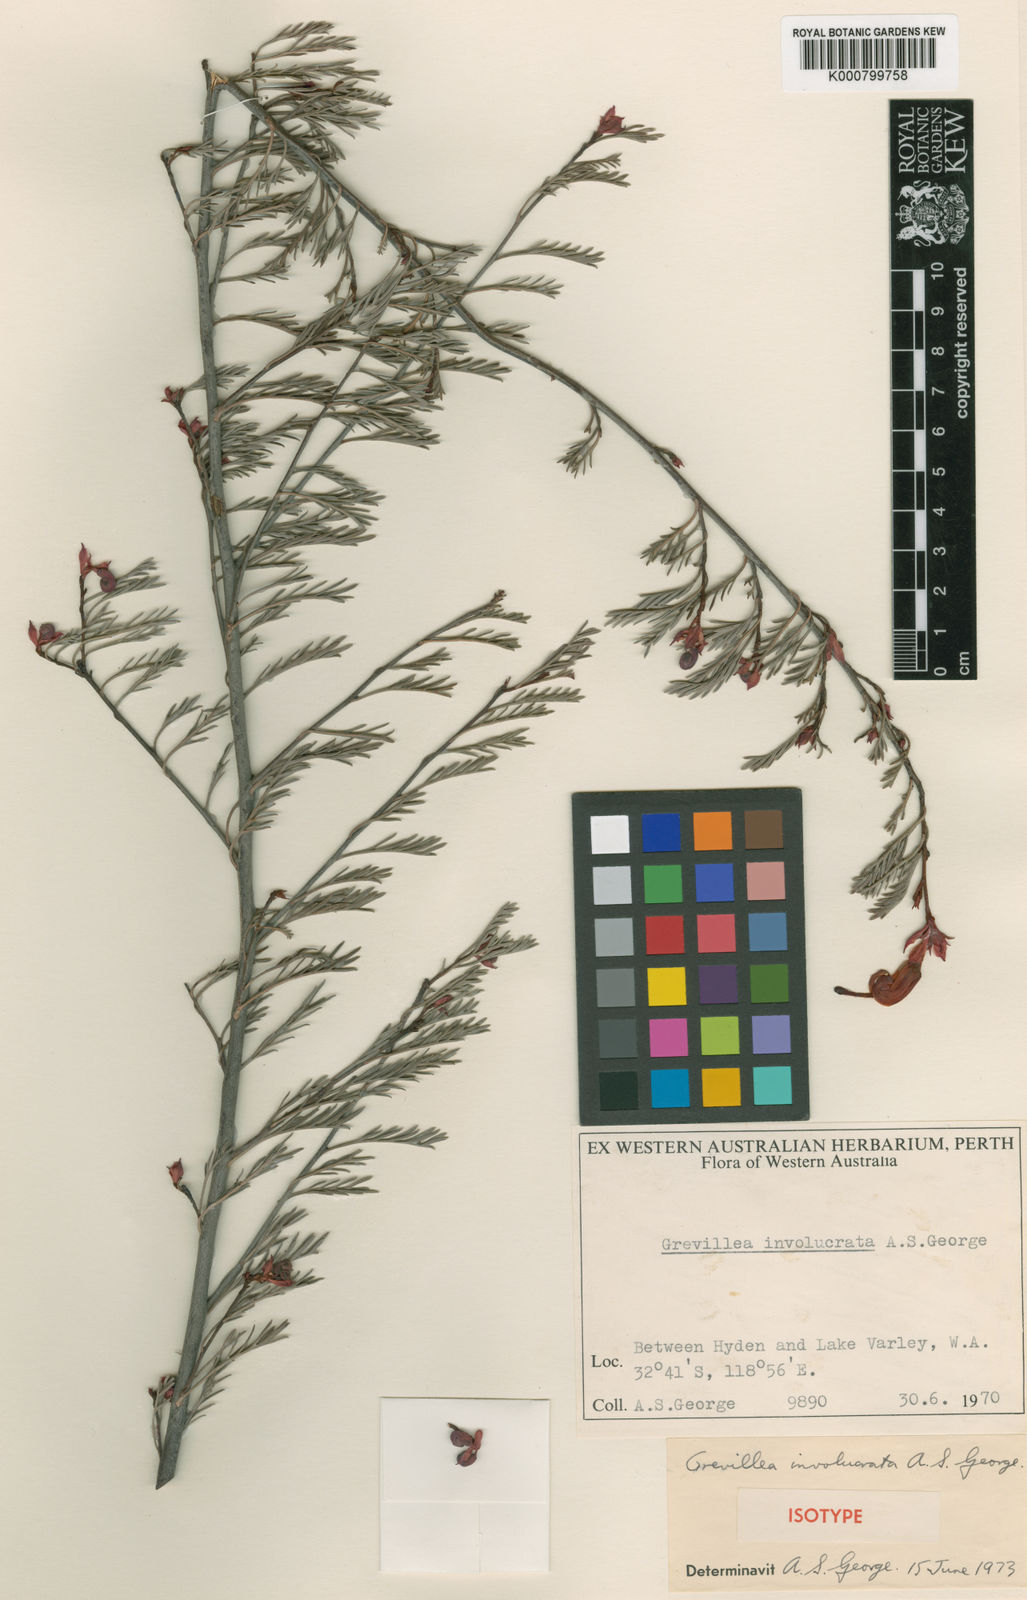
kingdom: Plantae
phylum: Tracheophyta
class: Magnoliopsida
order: Proteales
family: Proteaceae
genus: Grevillea
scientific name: Grevillea involucrata
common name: Lake varley grevillea
